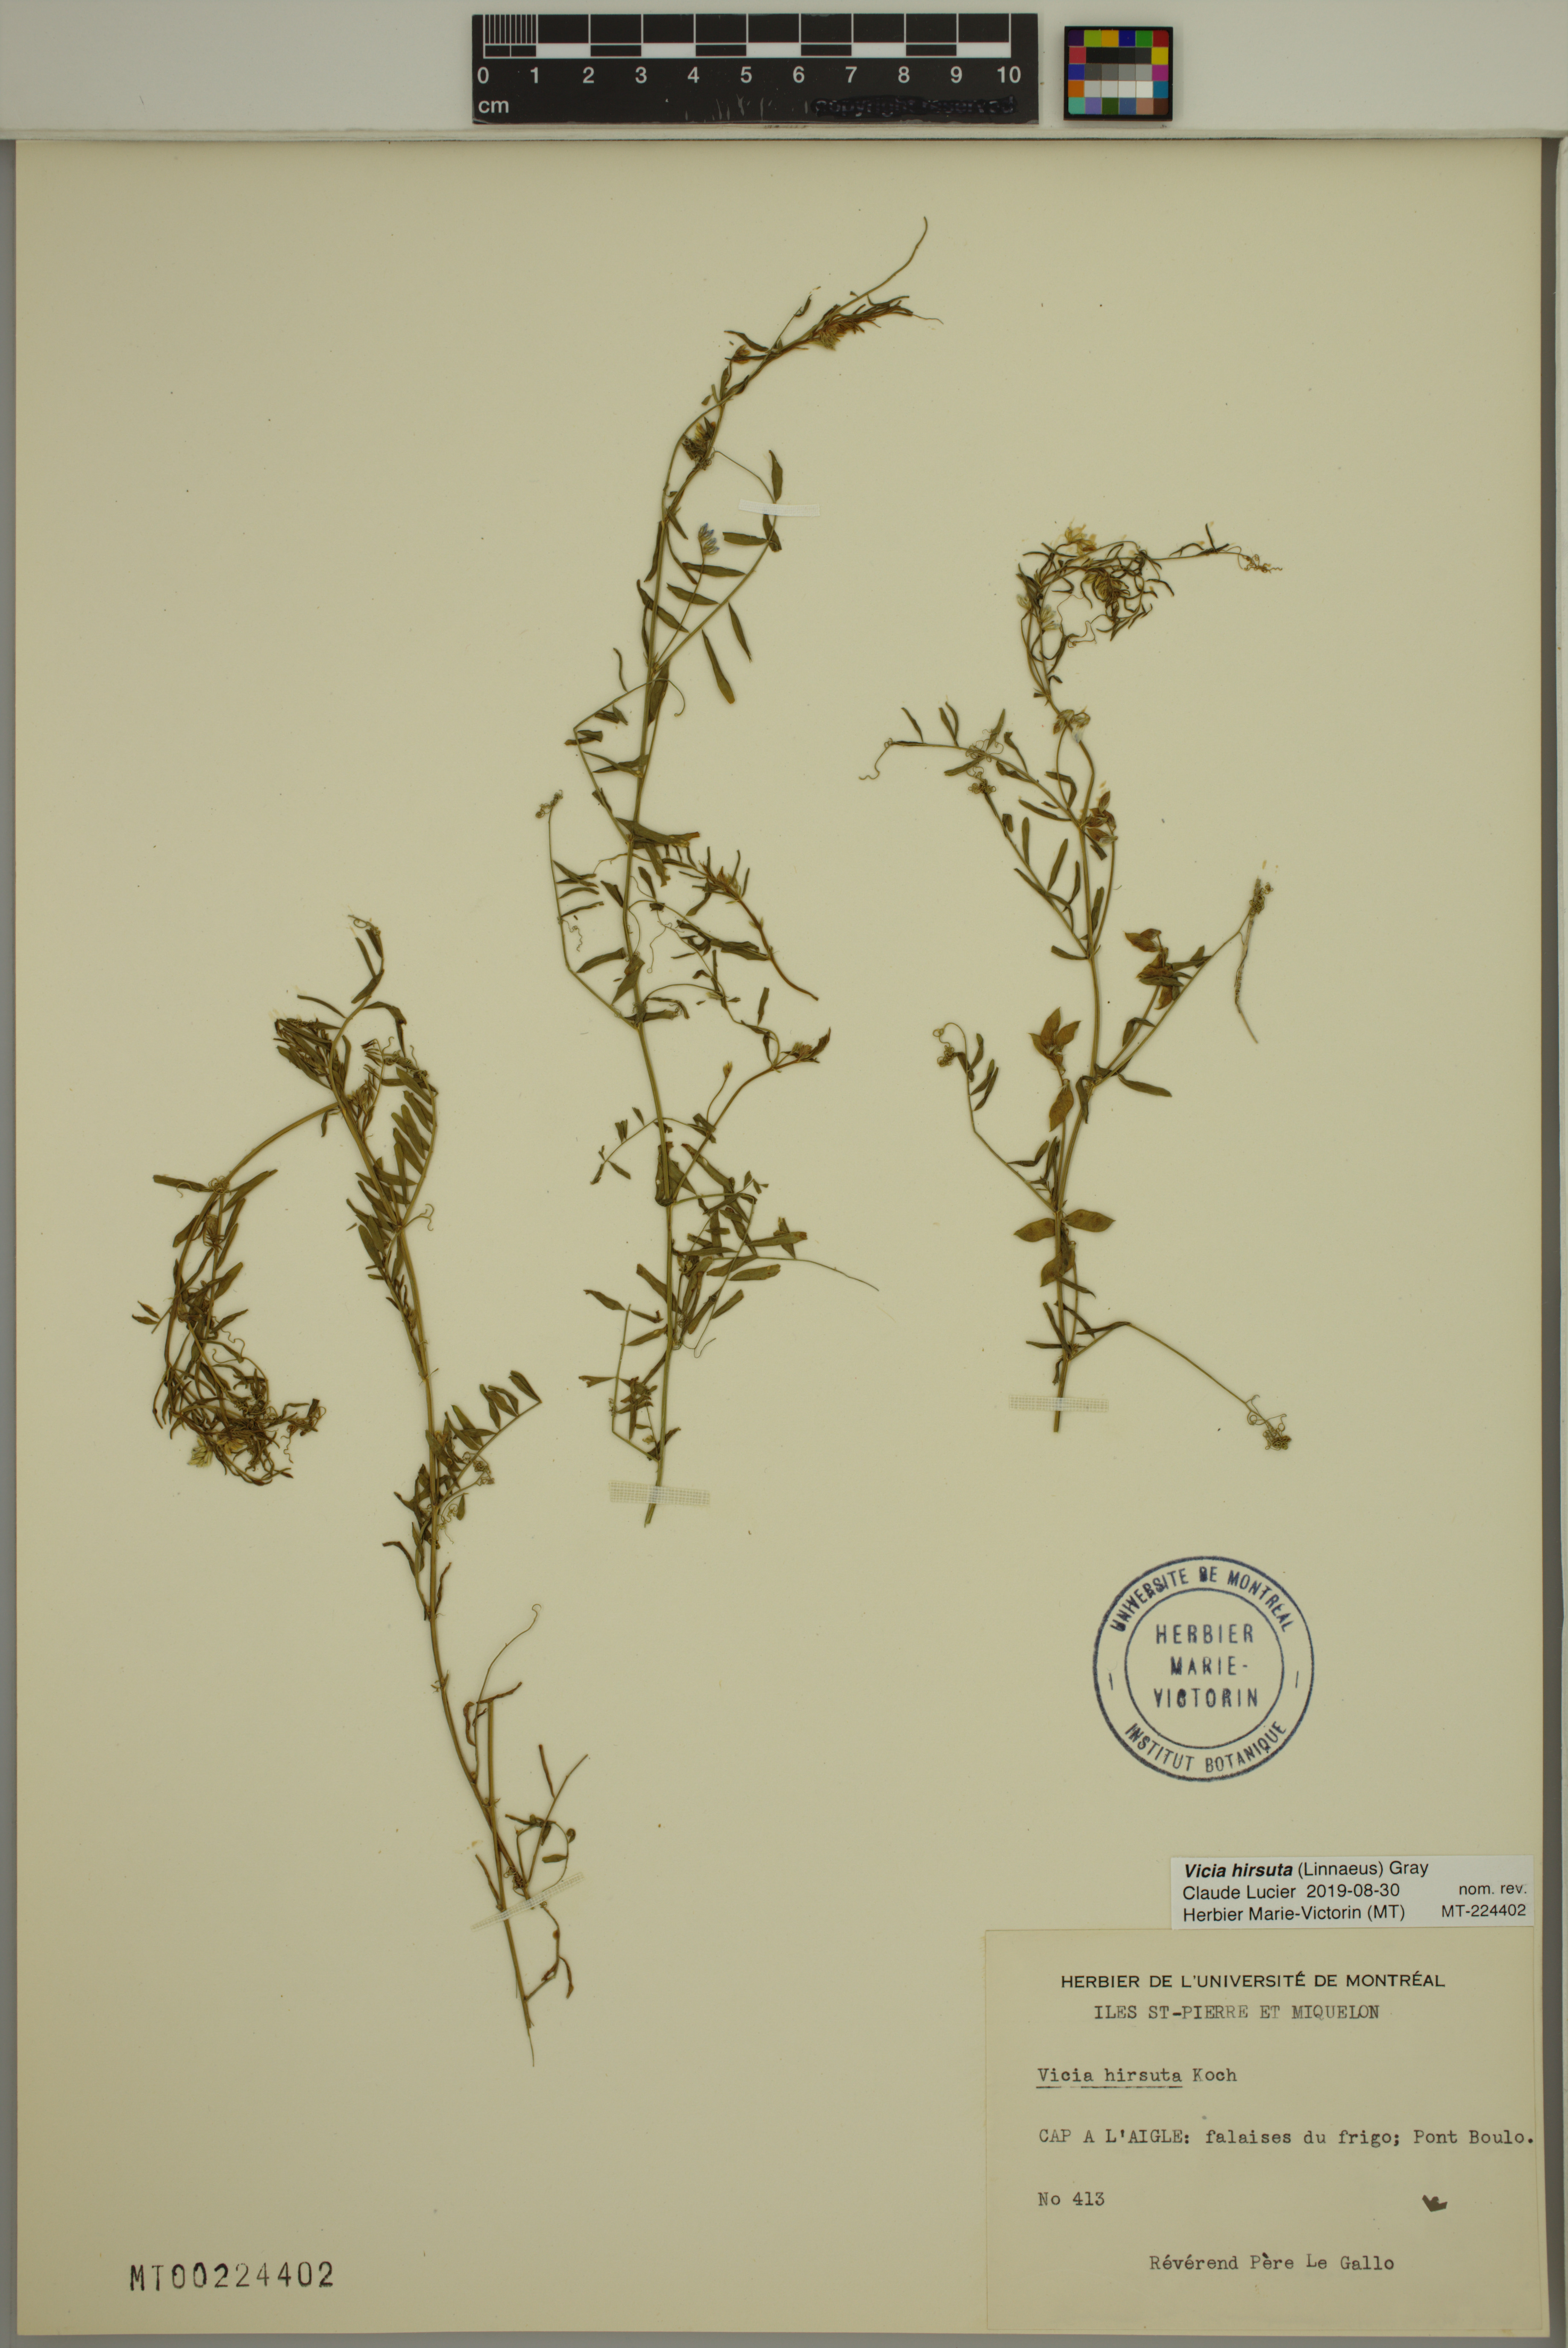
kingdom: Plantae
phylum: Tracheophyta
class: Magnoliopsida
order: Fabales
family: Fabaceae
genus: Vicia
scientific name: Vicia hirsuta
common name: Tiny vetch
